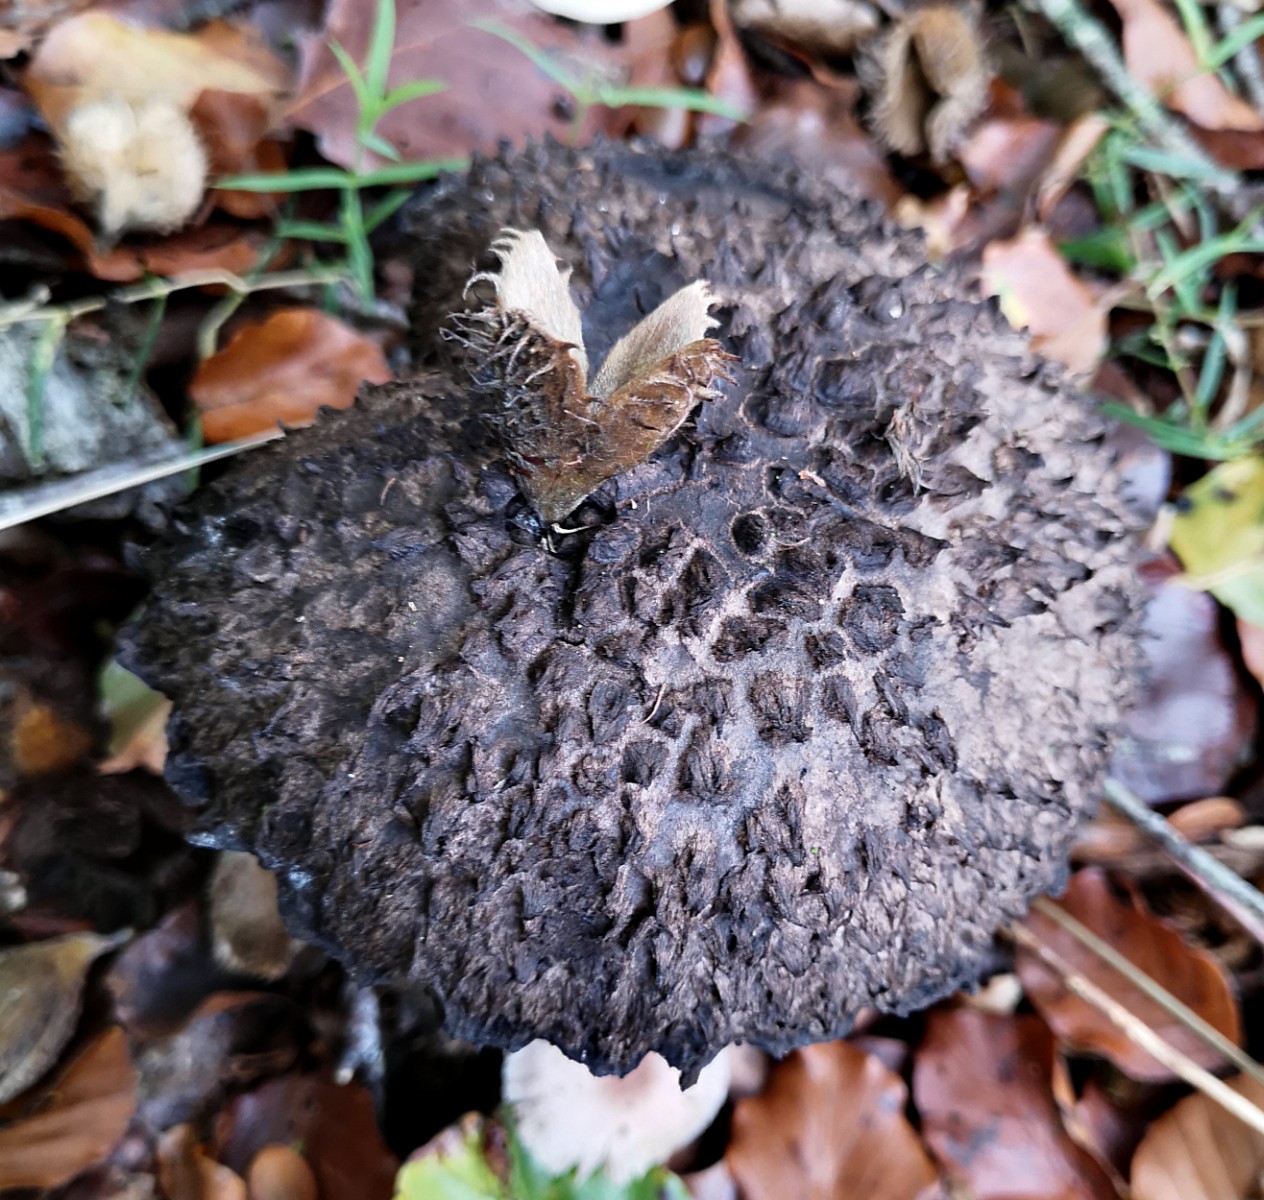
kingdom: Fungi
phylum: Basidiomycota
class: Agaricomycetes
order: Boletales
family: Boletaceae
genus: Strobilomyces
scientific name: Strobilomyces strobilaceus
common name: koglerørhat
